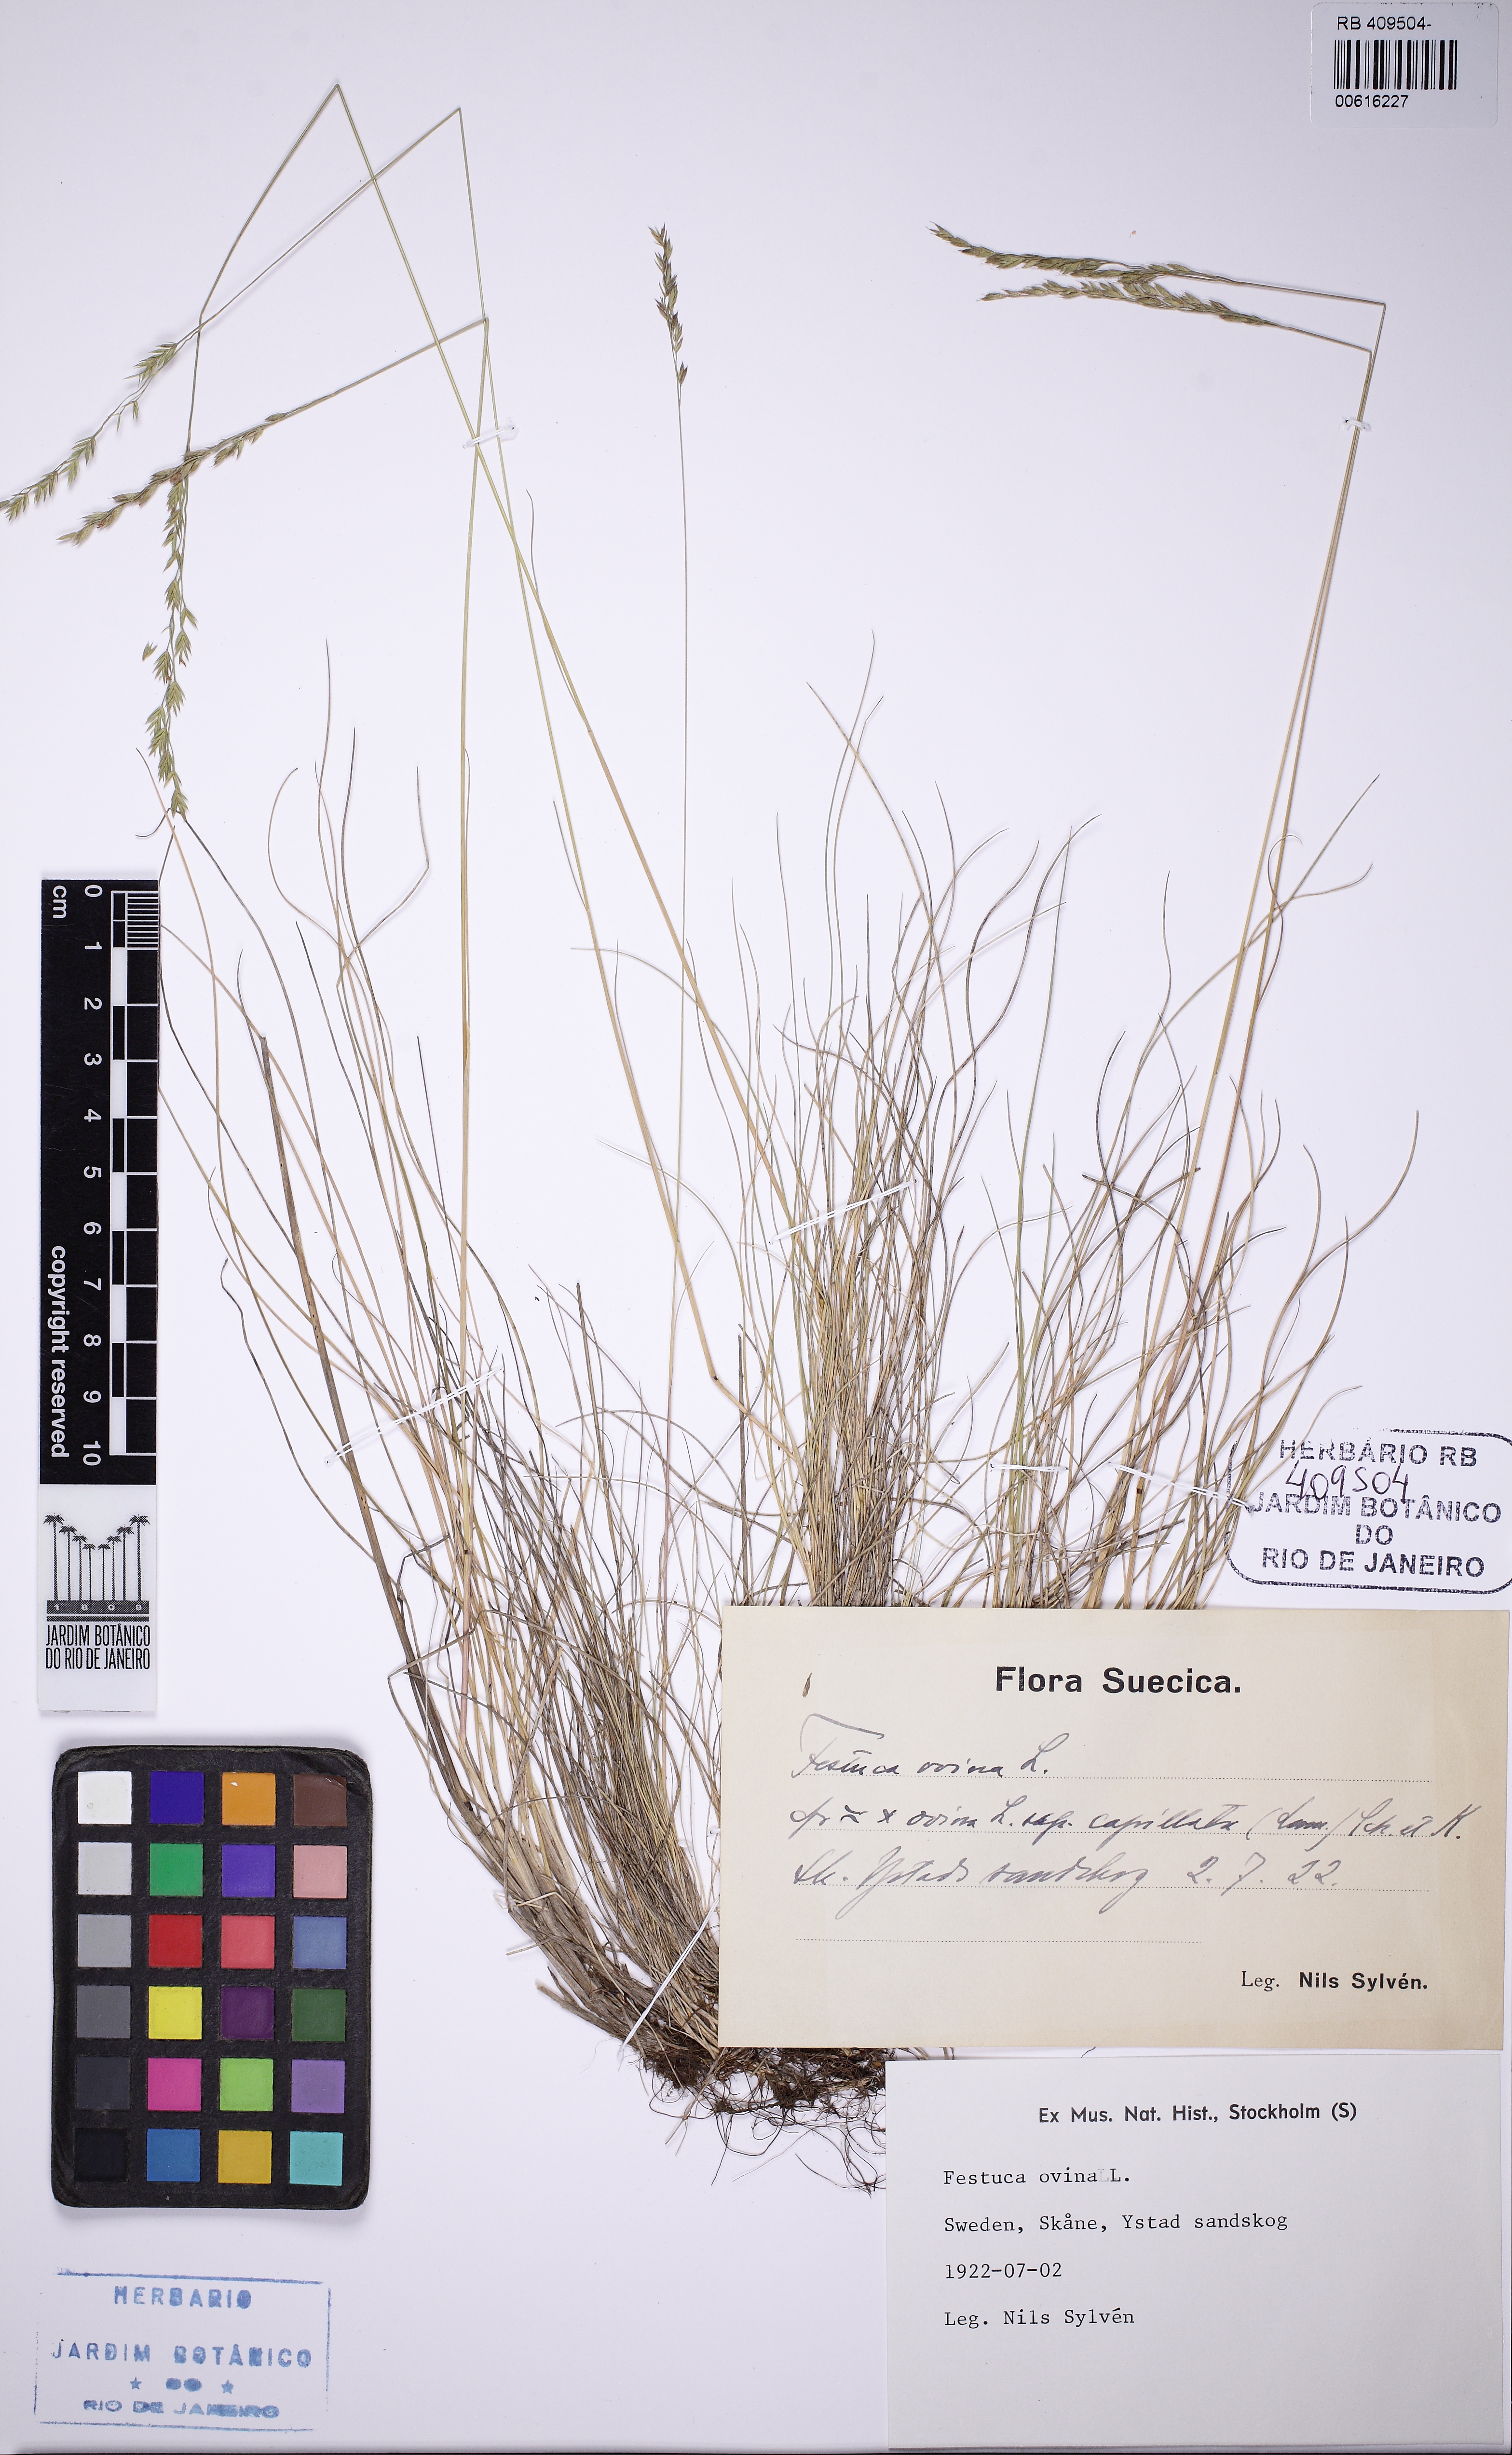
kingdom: Plantae
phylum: Tracheophyta
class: Liliopsida
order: Poales
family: Poaceae
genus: Festuca
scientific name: Festuca ovina
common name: Sheep fescue
